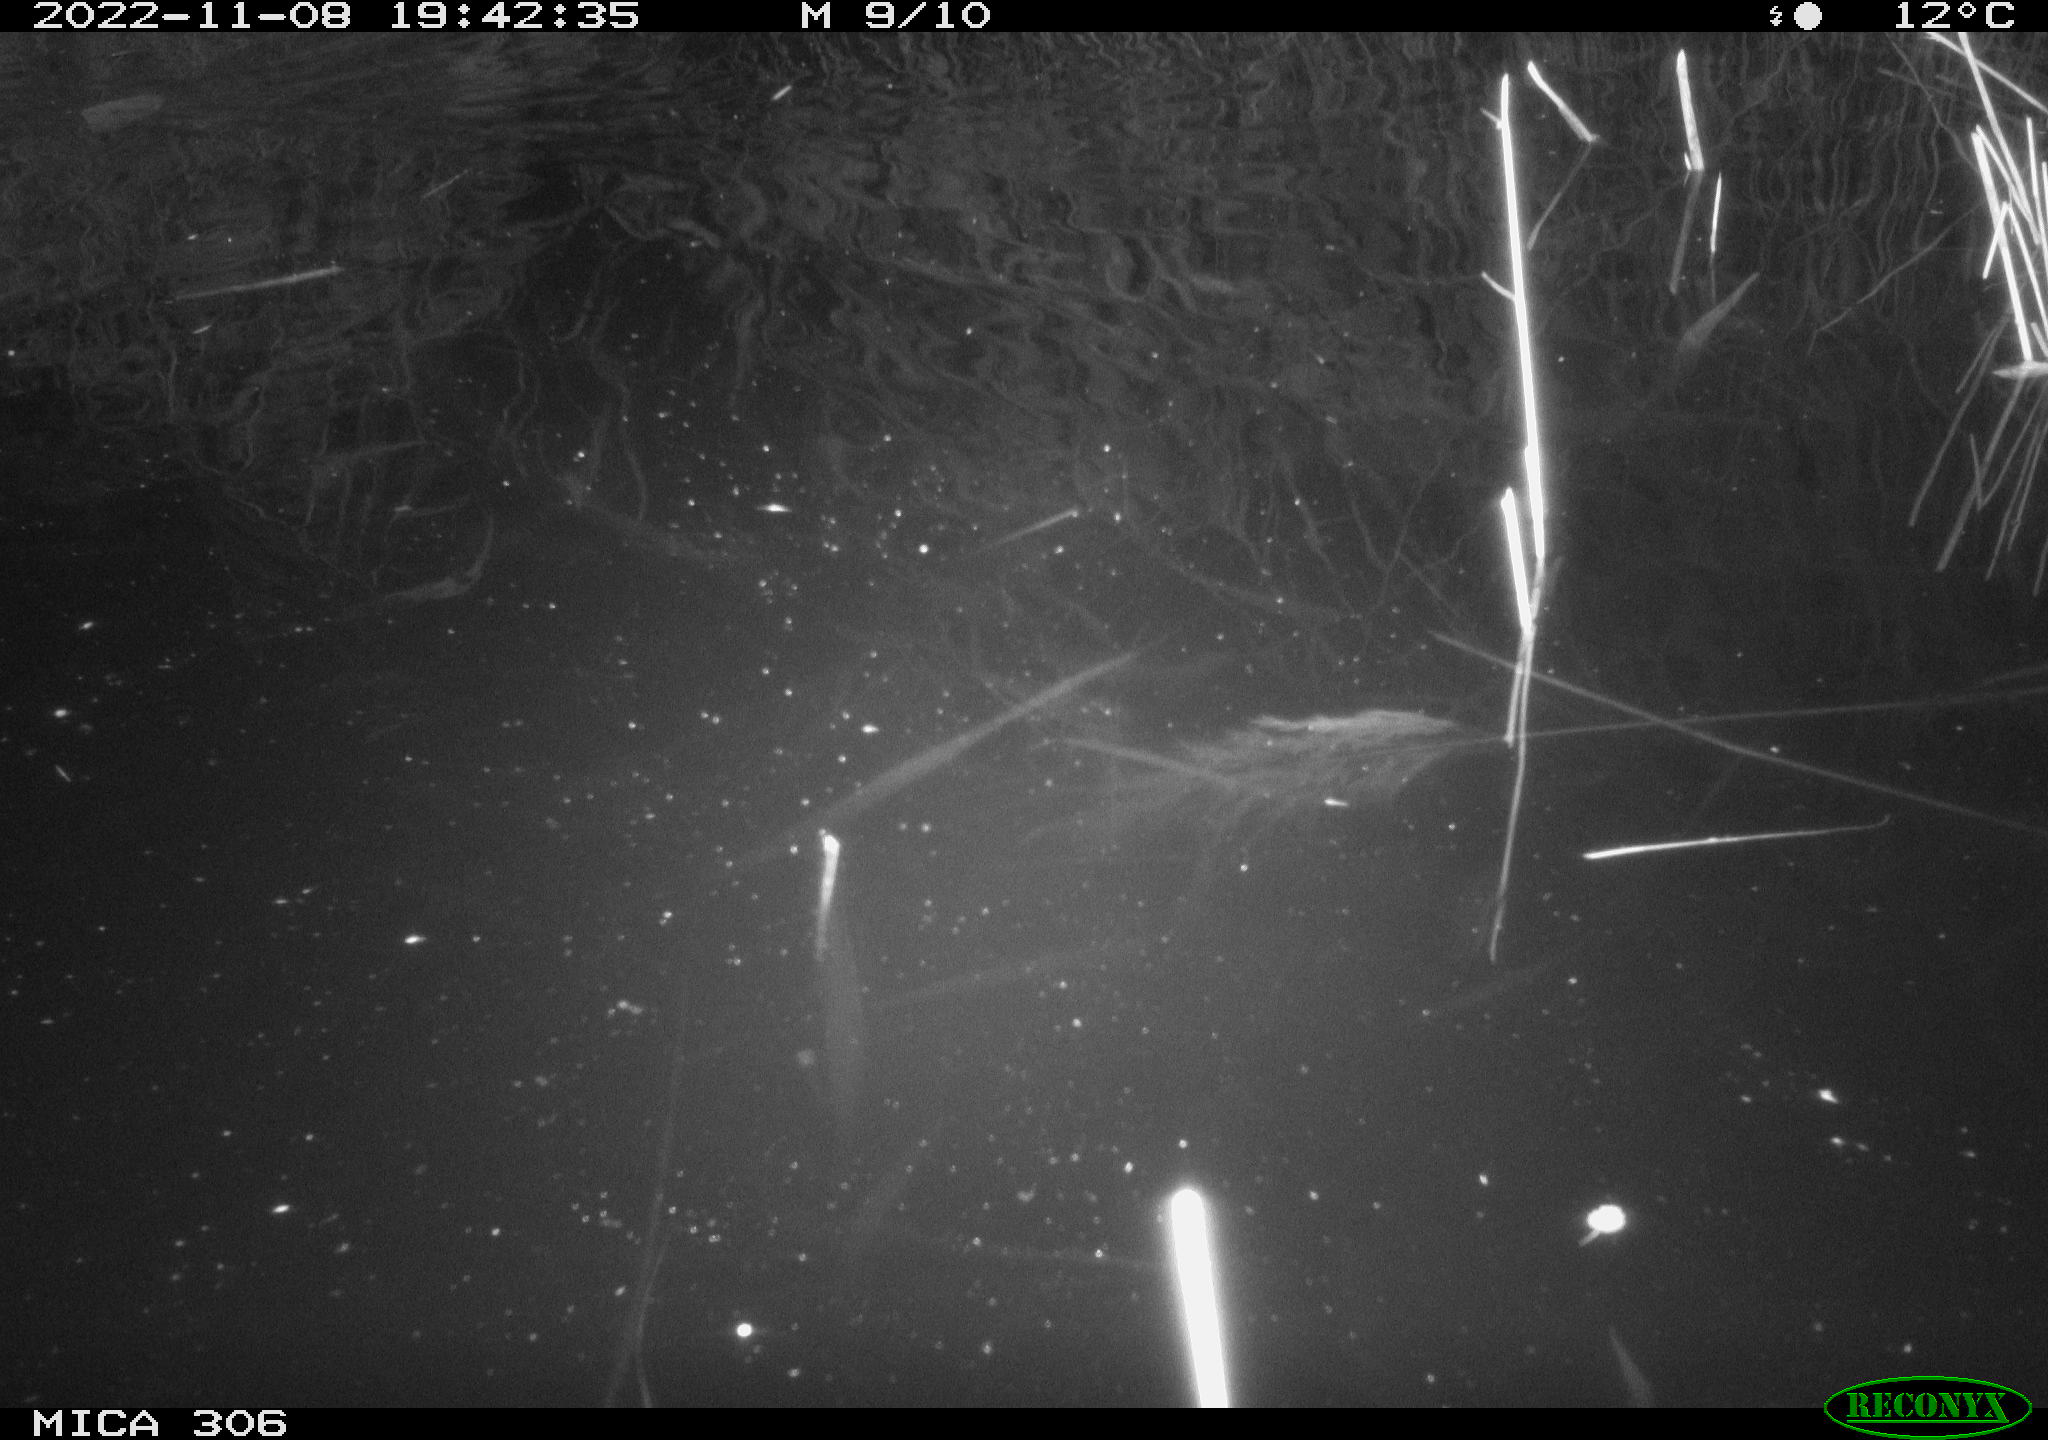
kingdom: Animalia
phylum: Chordata
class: Mammalia
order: Rodentia
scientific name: Rodentia
